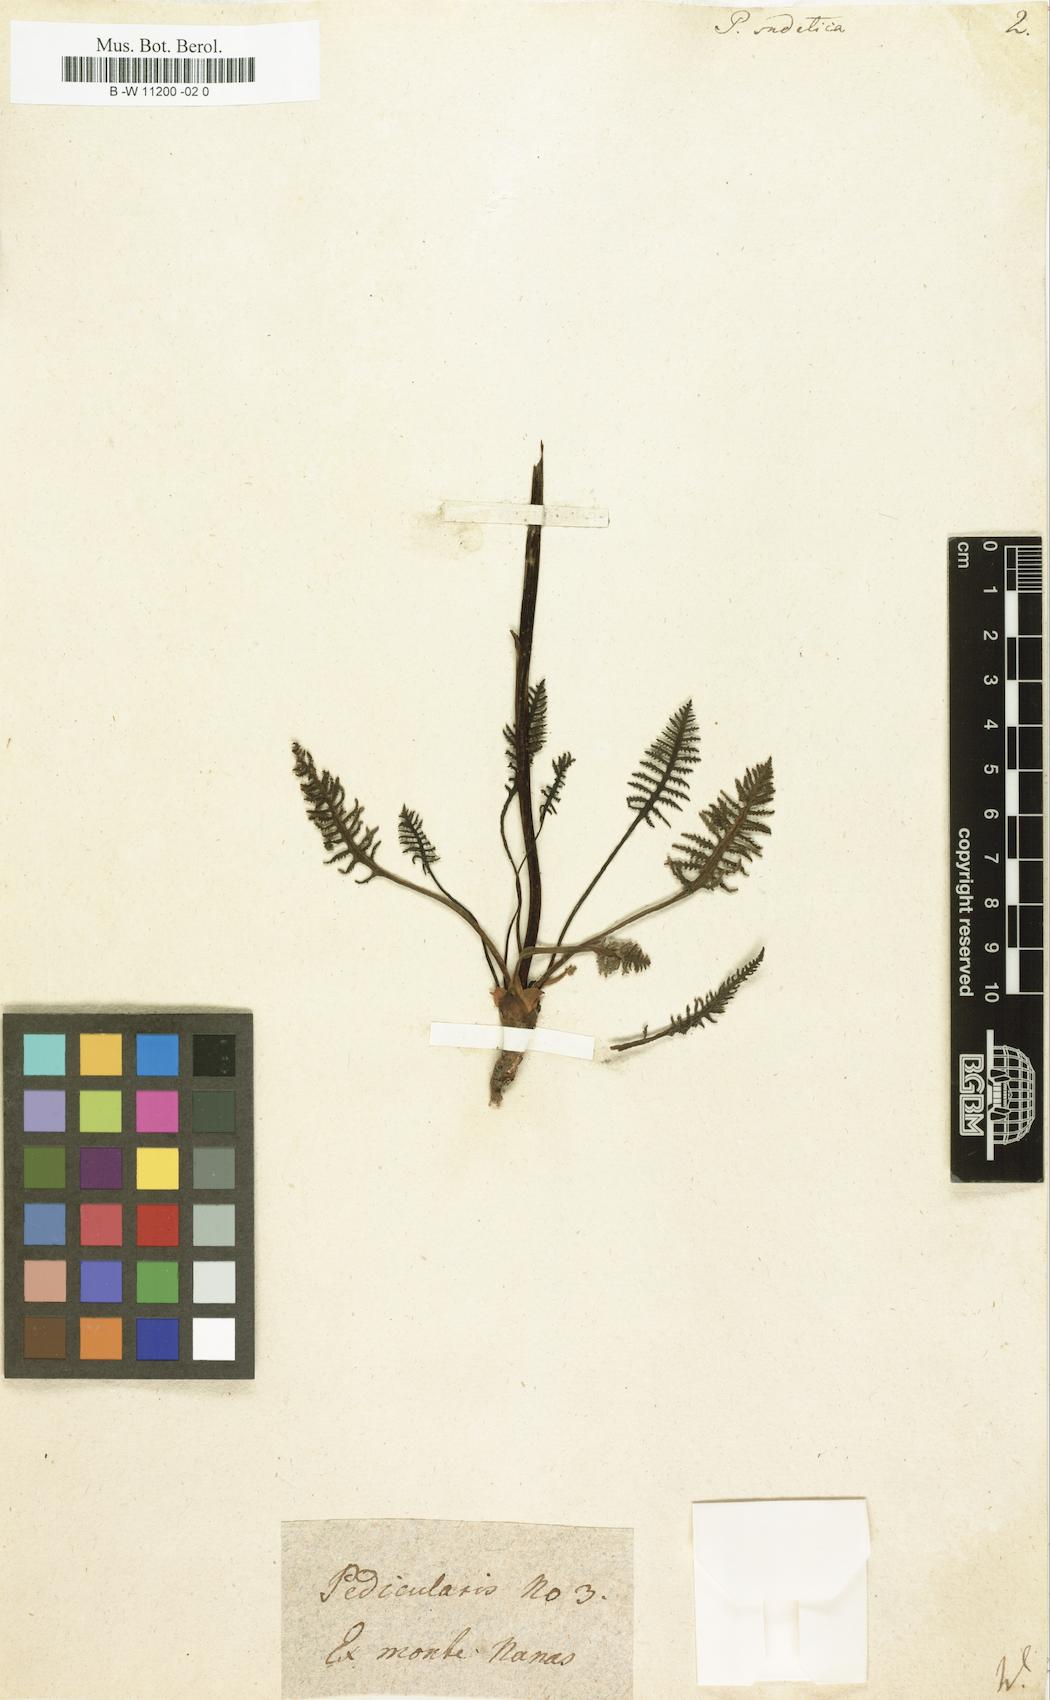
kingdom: Plantae
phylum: Tracheophyta
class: Magnoliopsida
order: Lamiales
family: Orobanchaceae
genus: Pedicularis
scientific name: Pedicularis sudetica
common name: Sudeten lousewort
